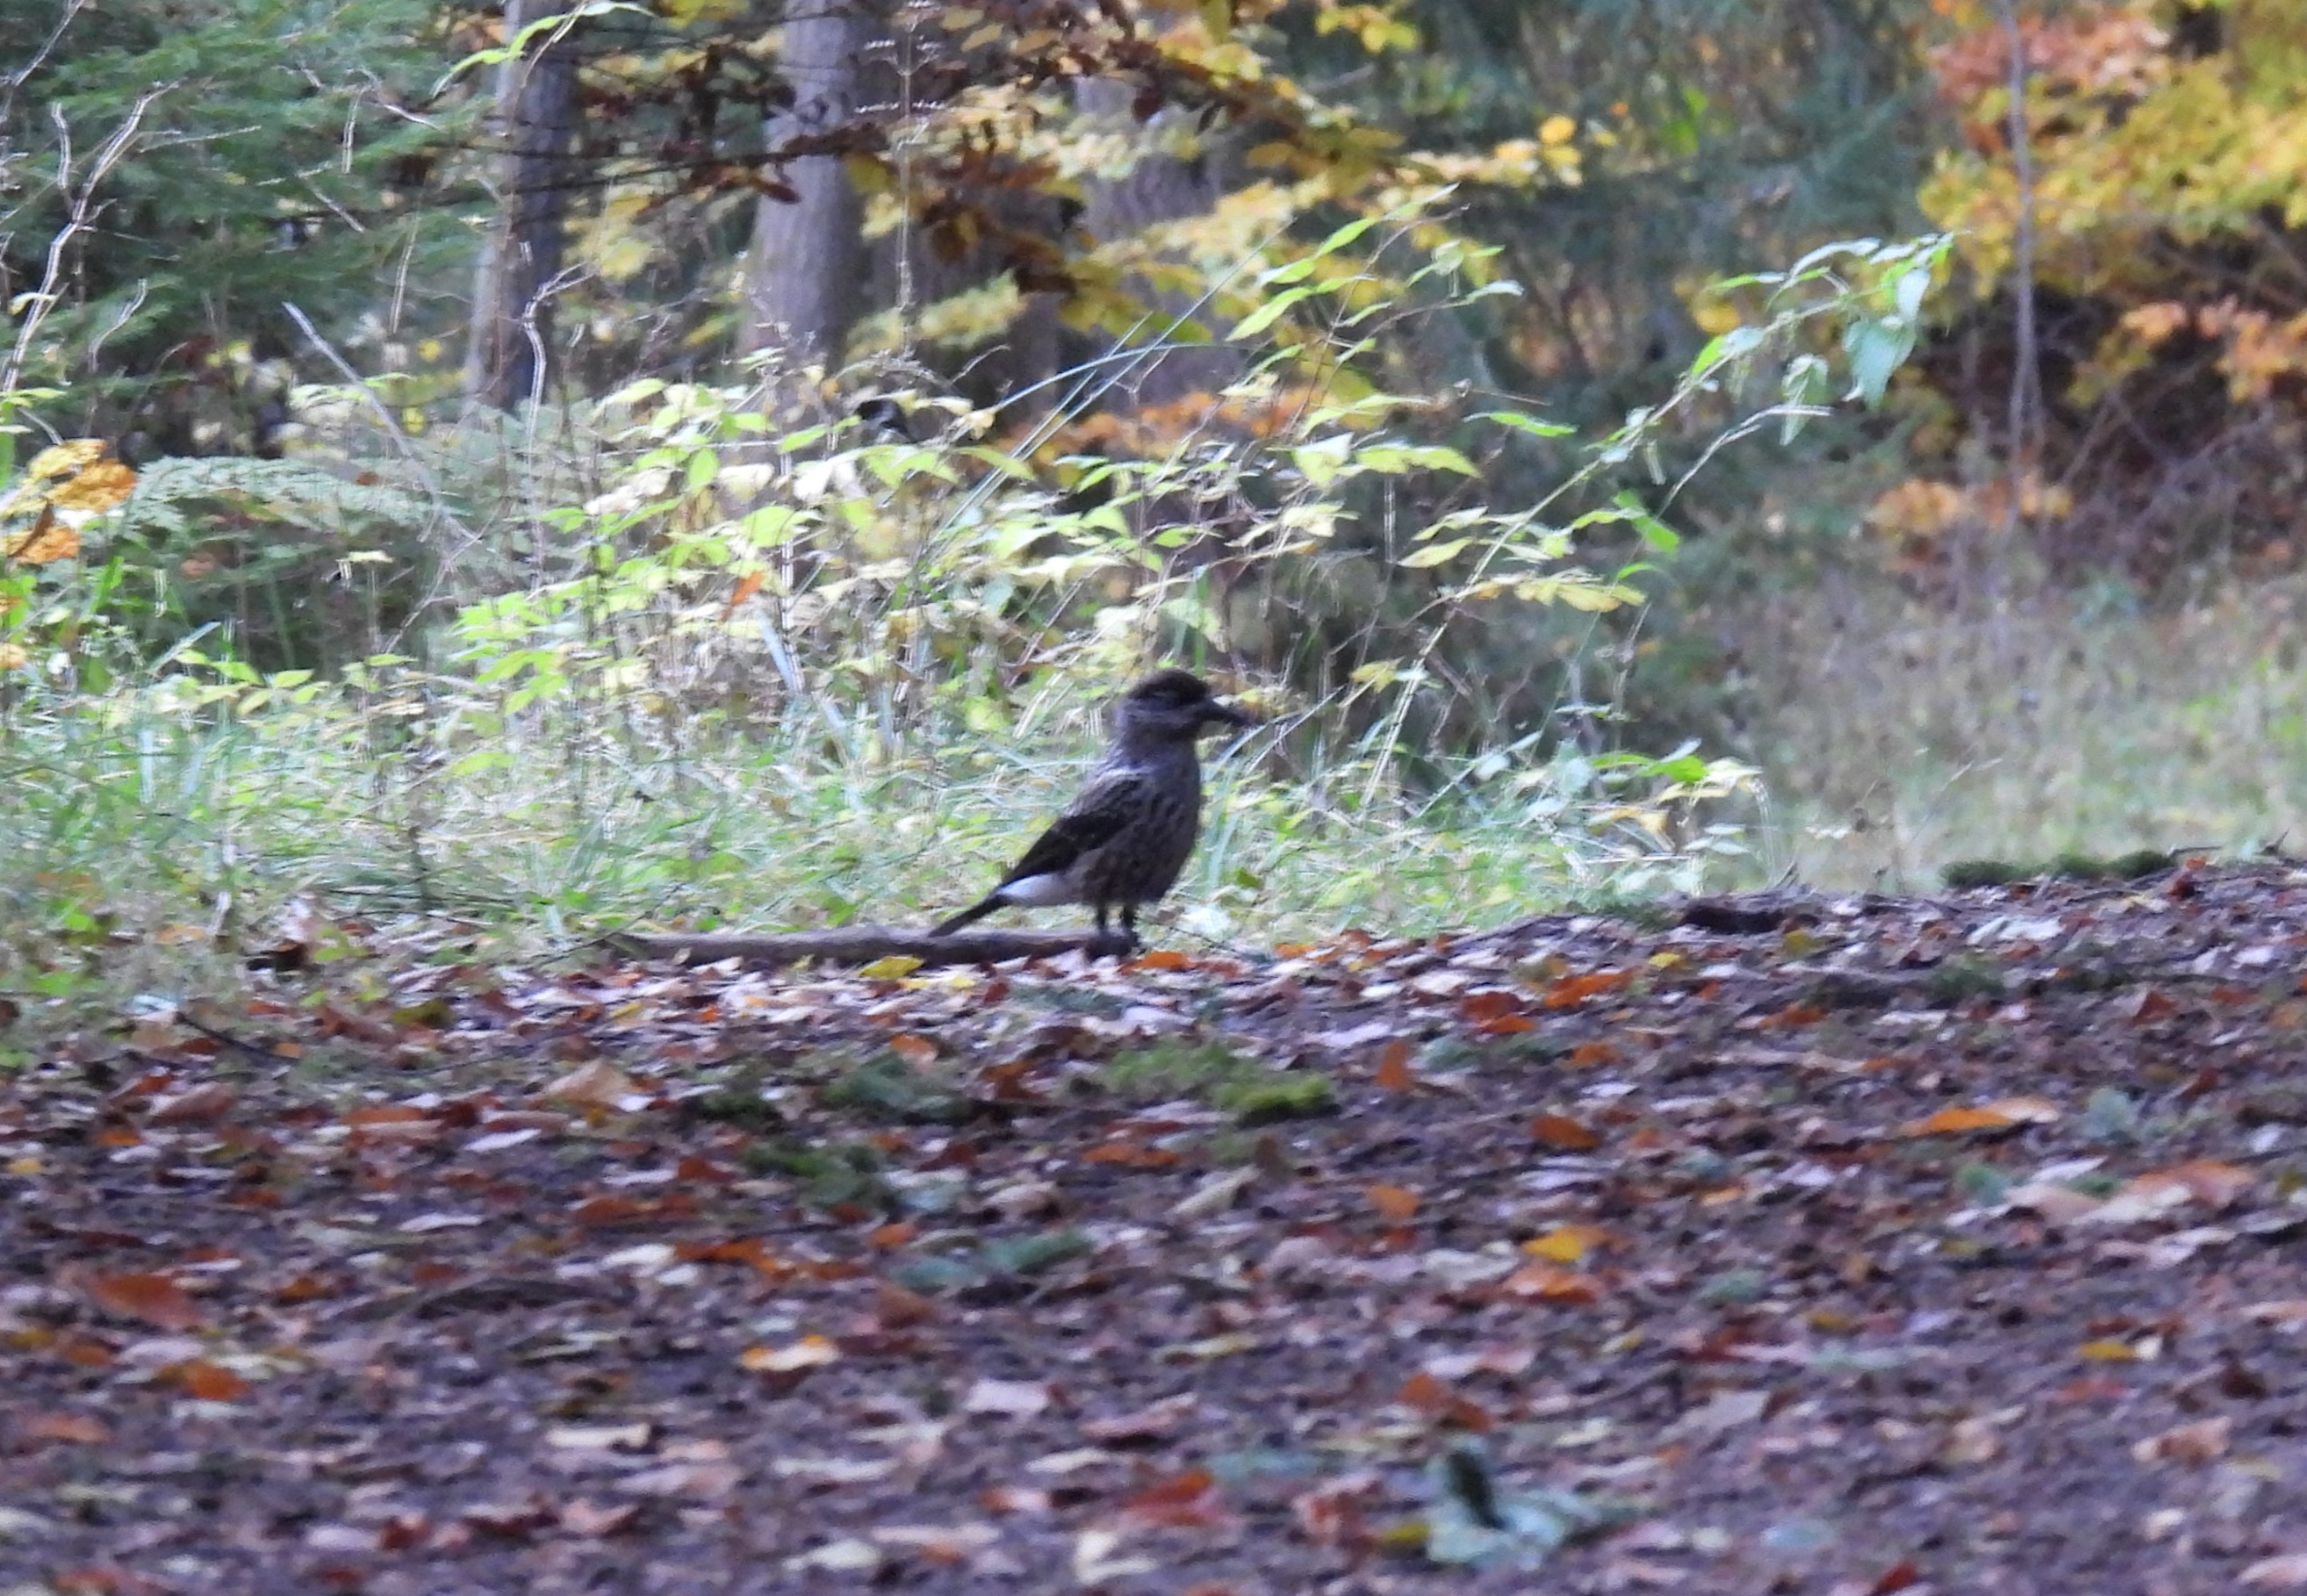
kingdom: Animalia
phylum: Chordata
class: Aves
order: Passeriformes
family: Corvidae
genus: Nucifraga
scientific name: Nucifraga caryocatactes
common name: Nøddekrige
